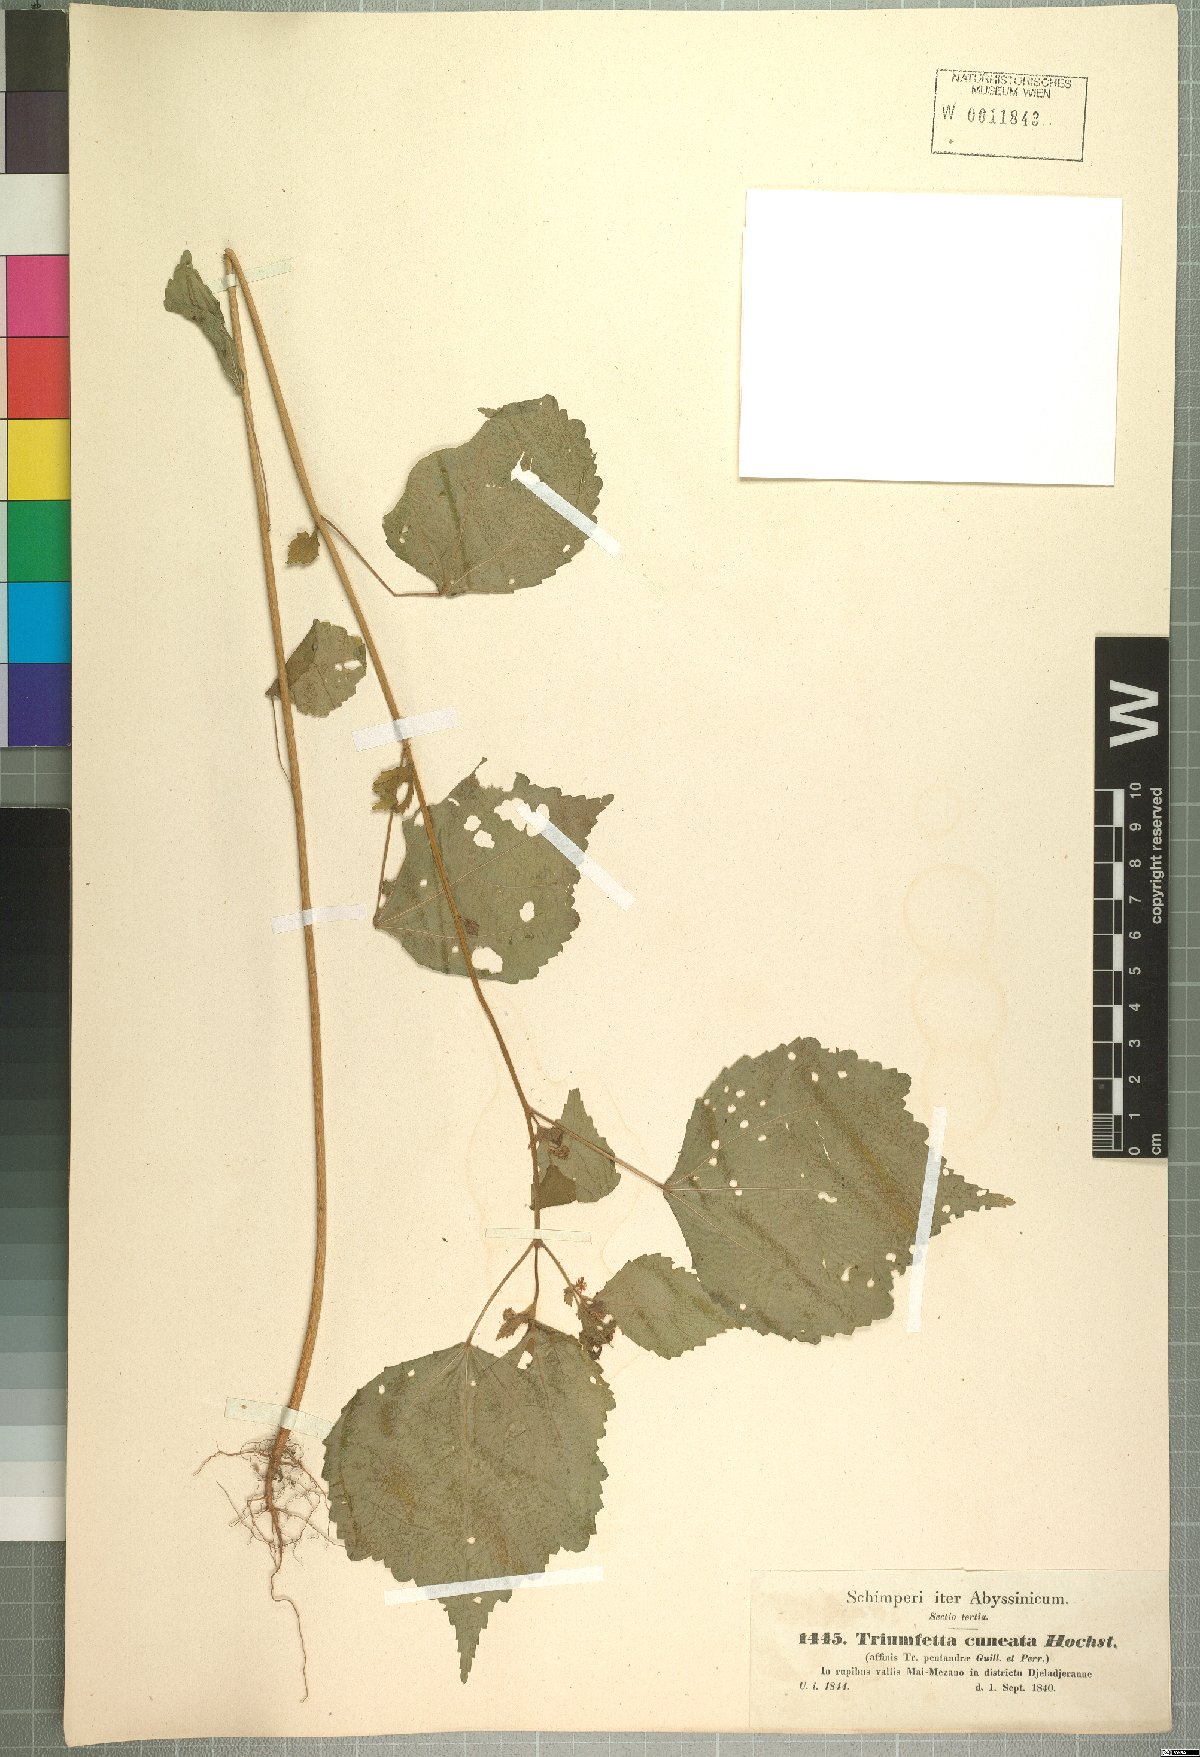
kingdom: Plantae
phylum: Tracheophyta
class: Magnoliopsida
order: Malvales
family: Malvaceae
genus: Triumfetta
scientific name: Triumfetta pentandra
